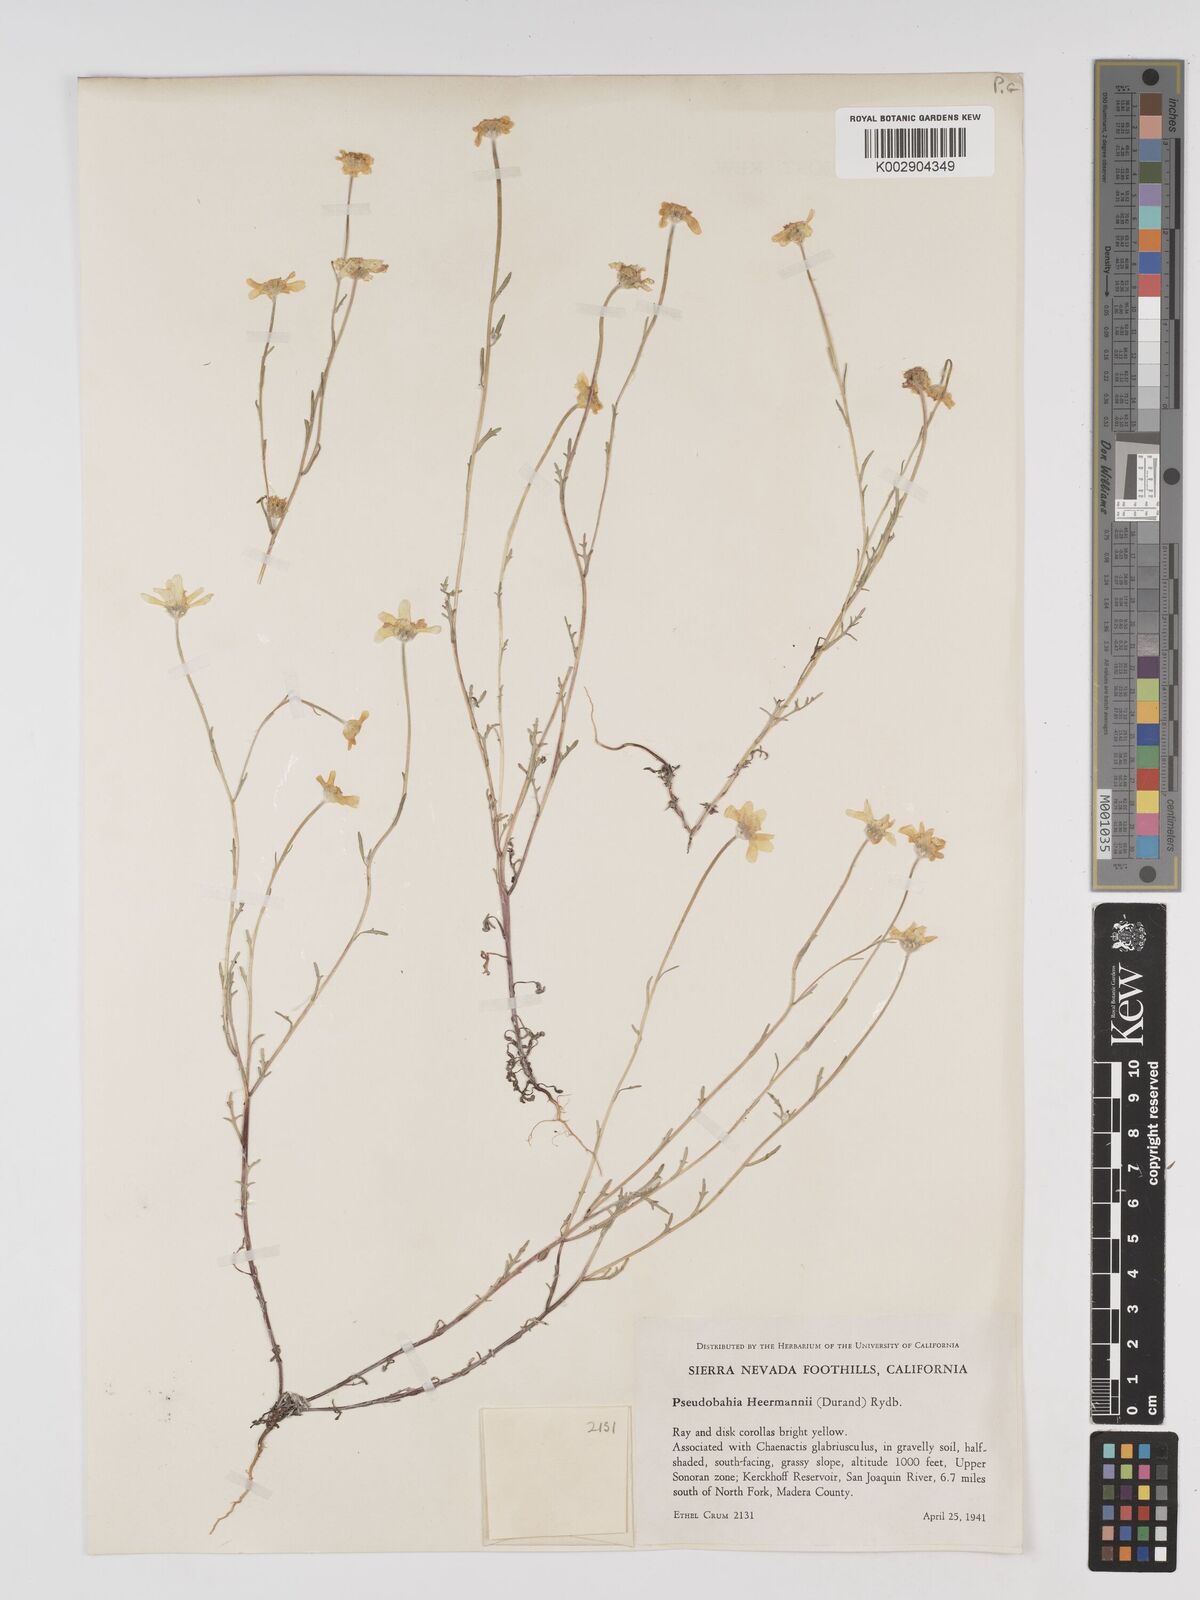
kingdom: Plantae
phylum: Tracheophyta
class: Magnoliopsida
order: Asterales
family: Asteraceae
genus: Eriophyllum
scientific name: Eriophyllum jepsonii
